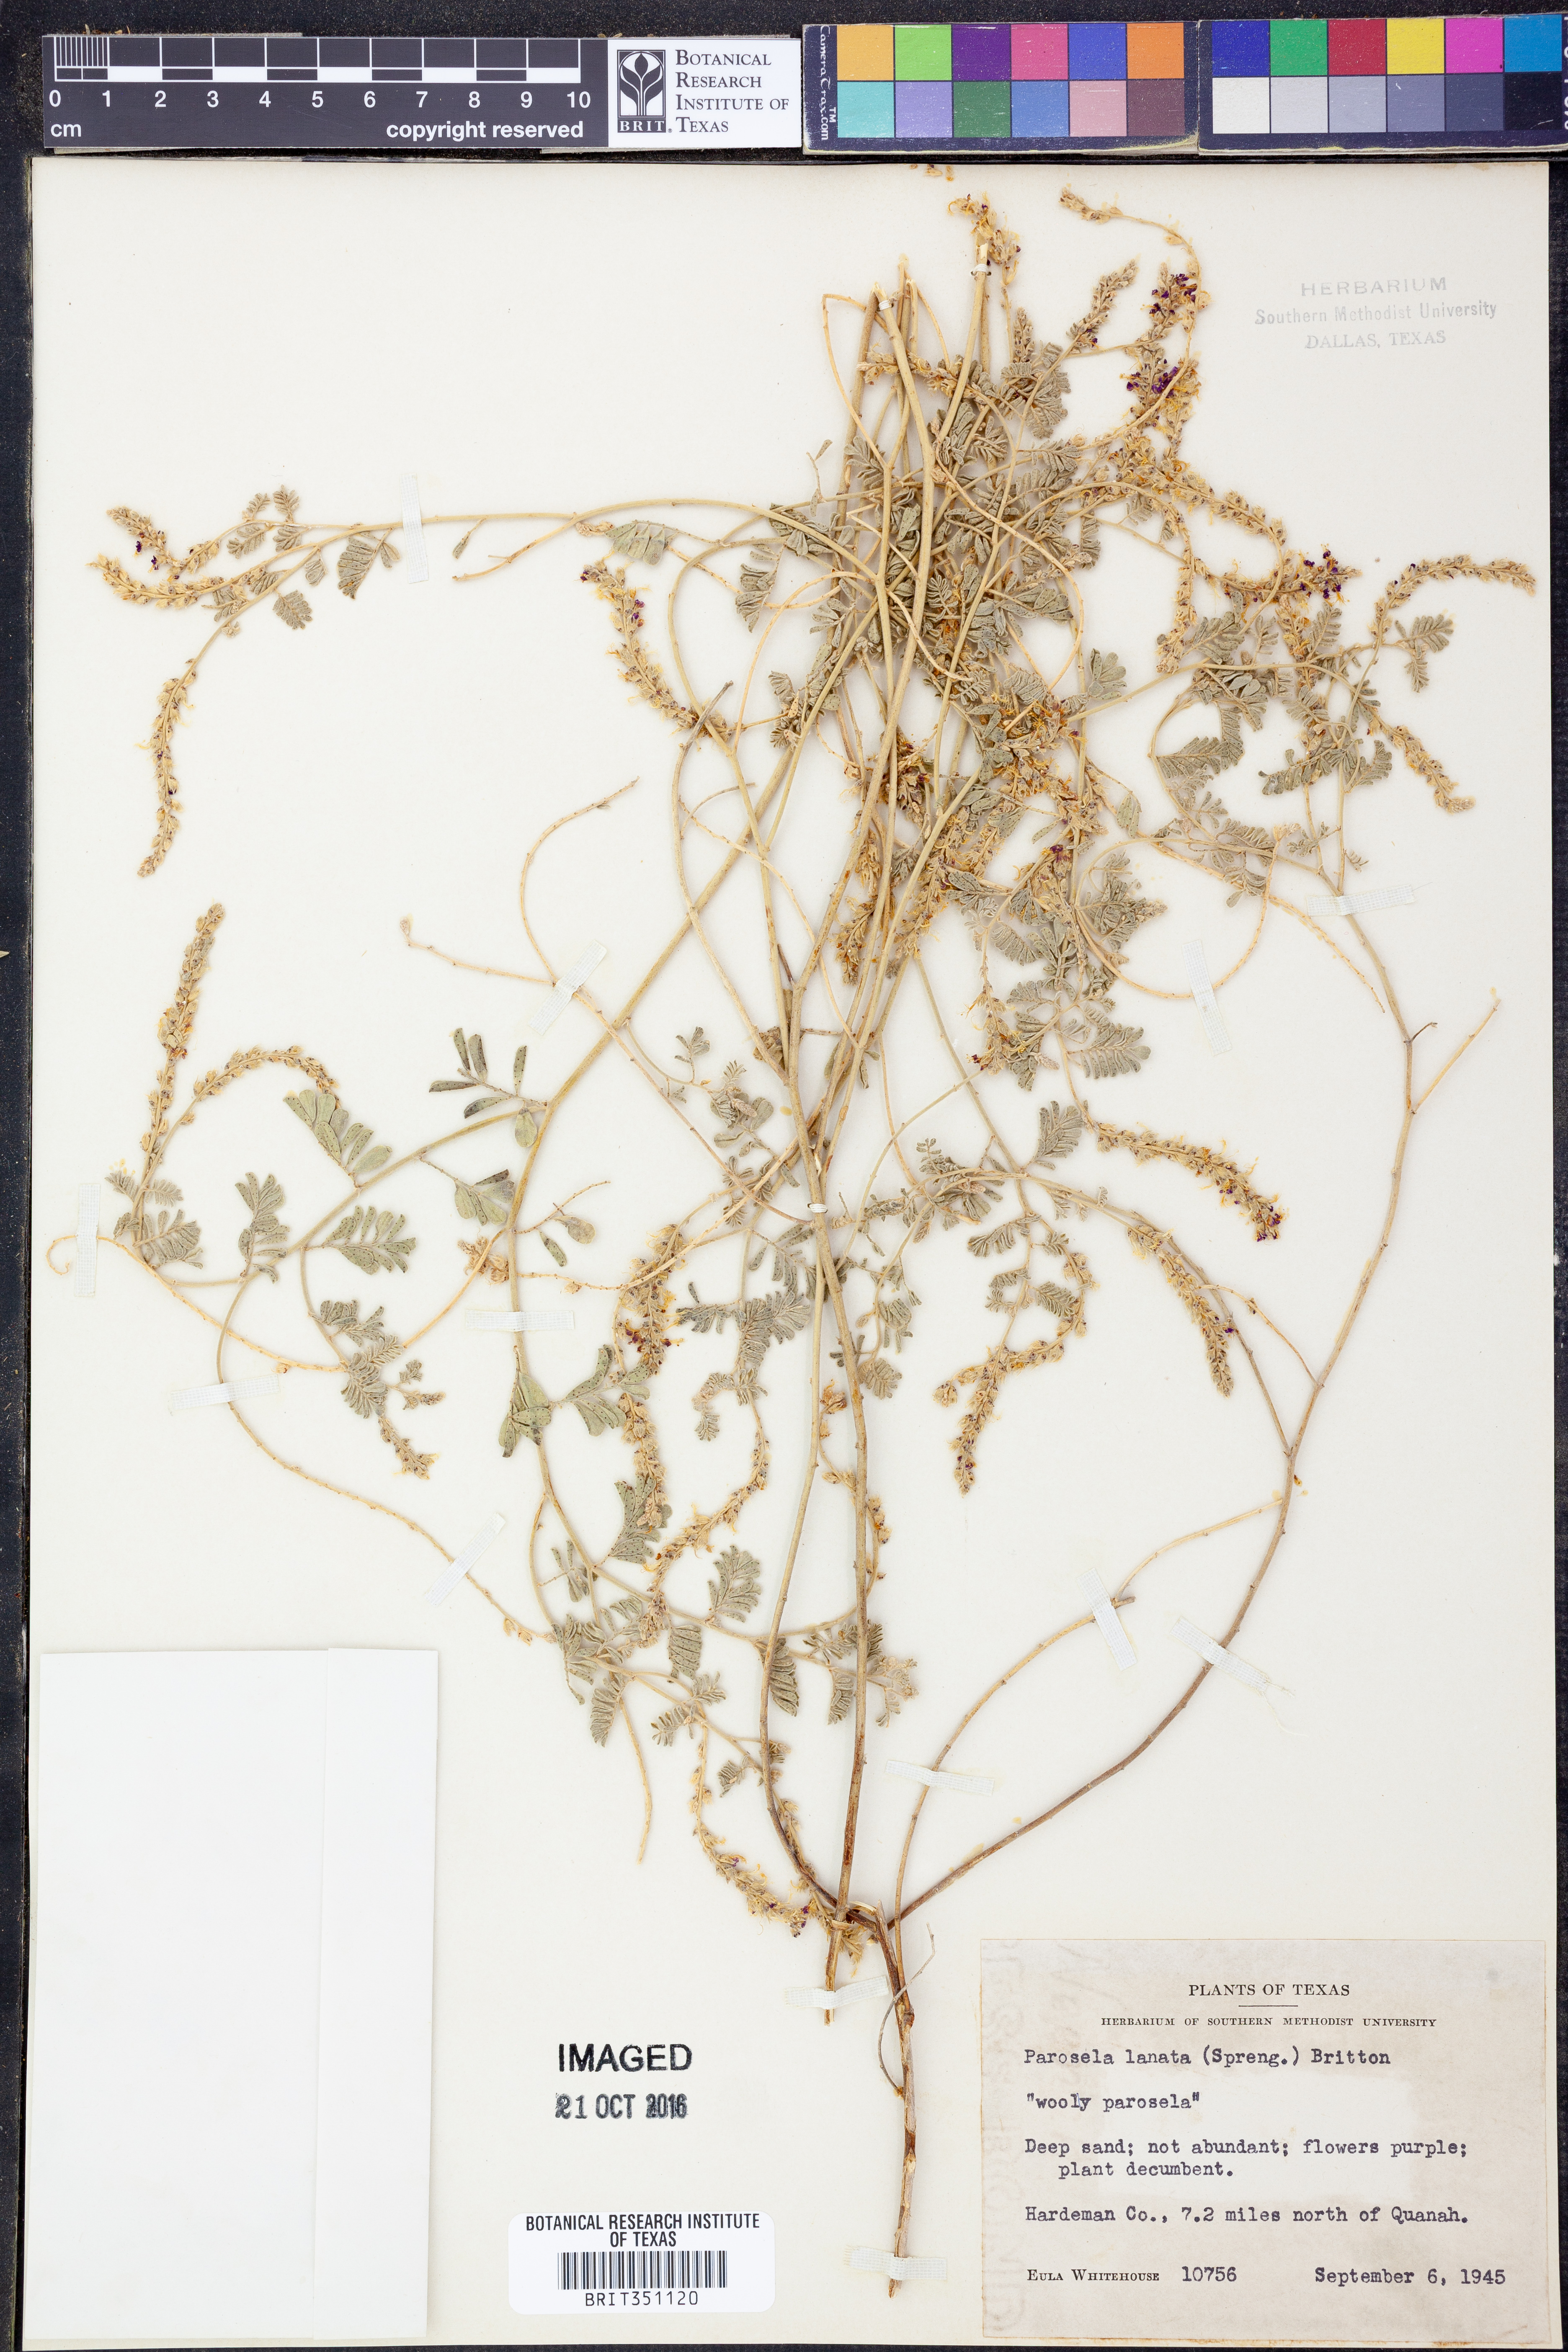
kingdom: Plantae
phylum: Tracheophyta
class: Magnoliopsida
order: Fabales
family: Fabaceae
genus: Dalea
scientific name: Dalea lanata
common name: Woolly dalea
